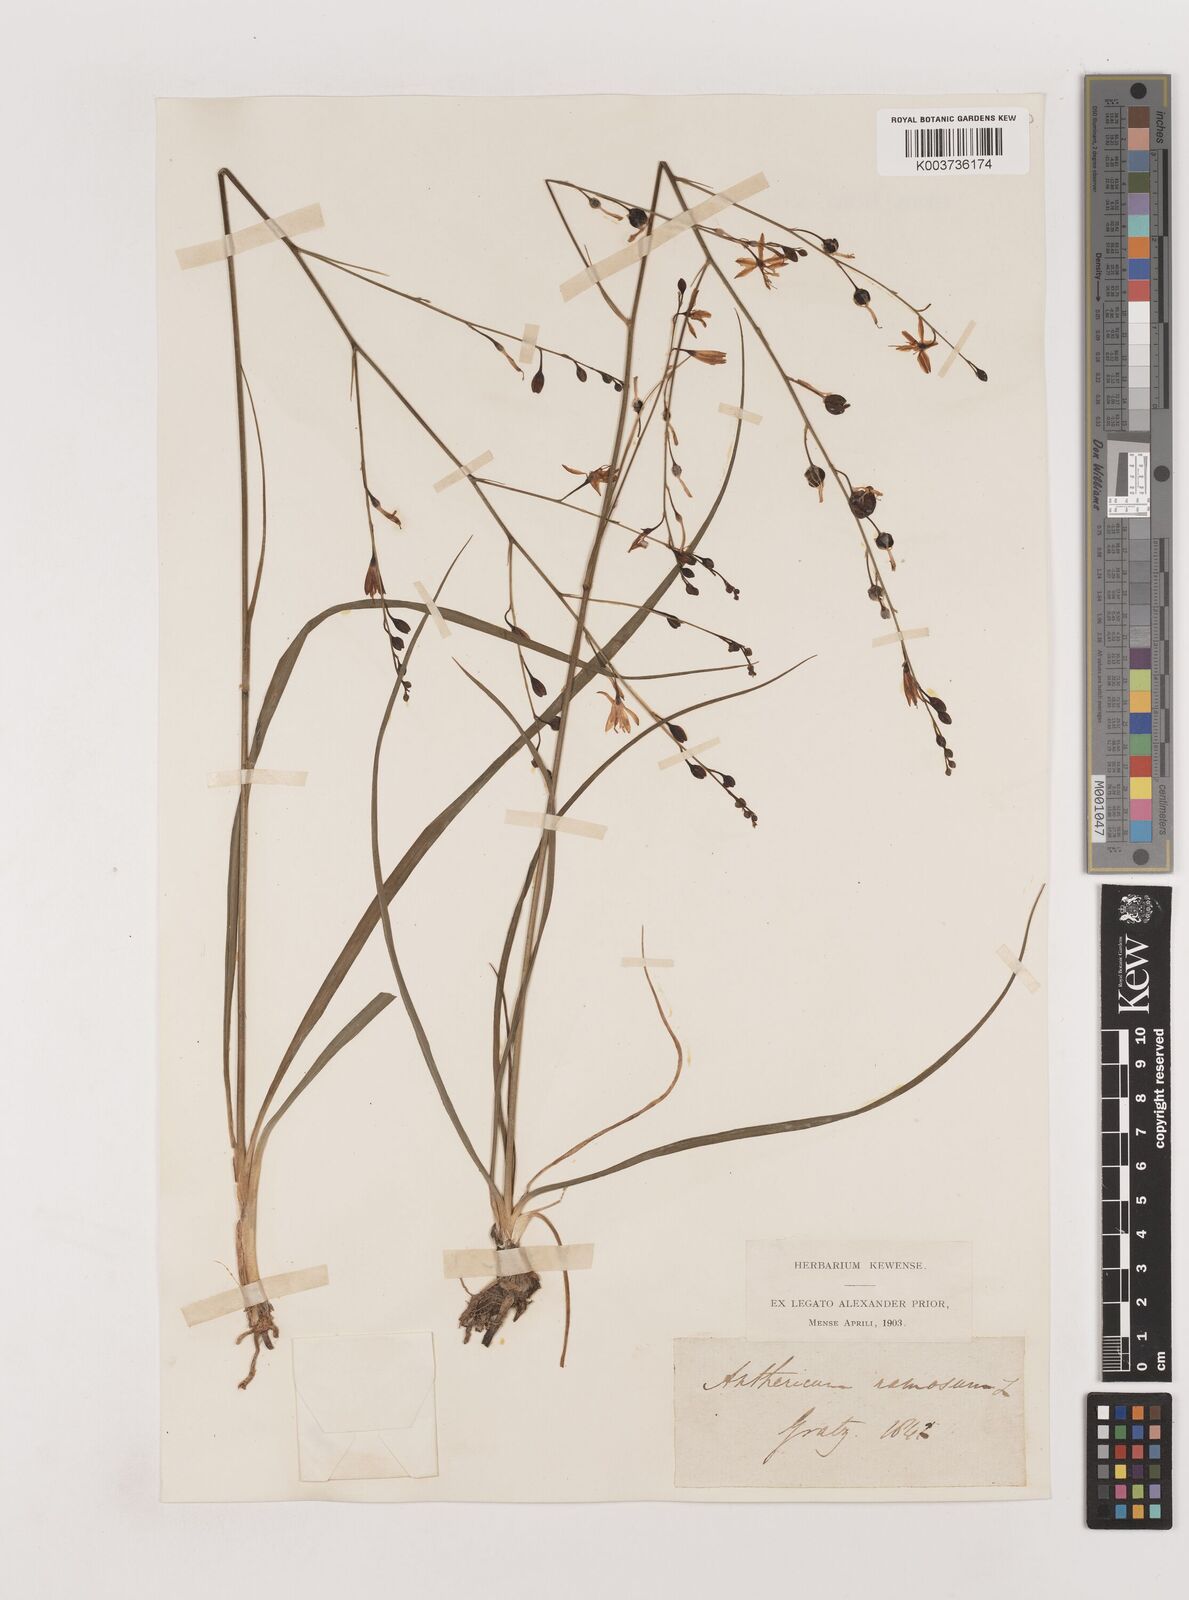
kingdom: Plantae
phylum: Tracheophyta
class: Liliopsida
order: Asparagales
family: Asparagaceae
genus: Anthericum
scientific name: Anthericum ramosum
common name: Branched st. bernard's-lily
